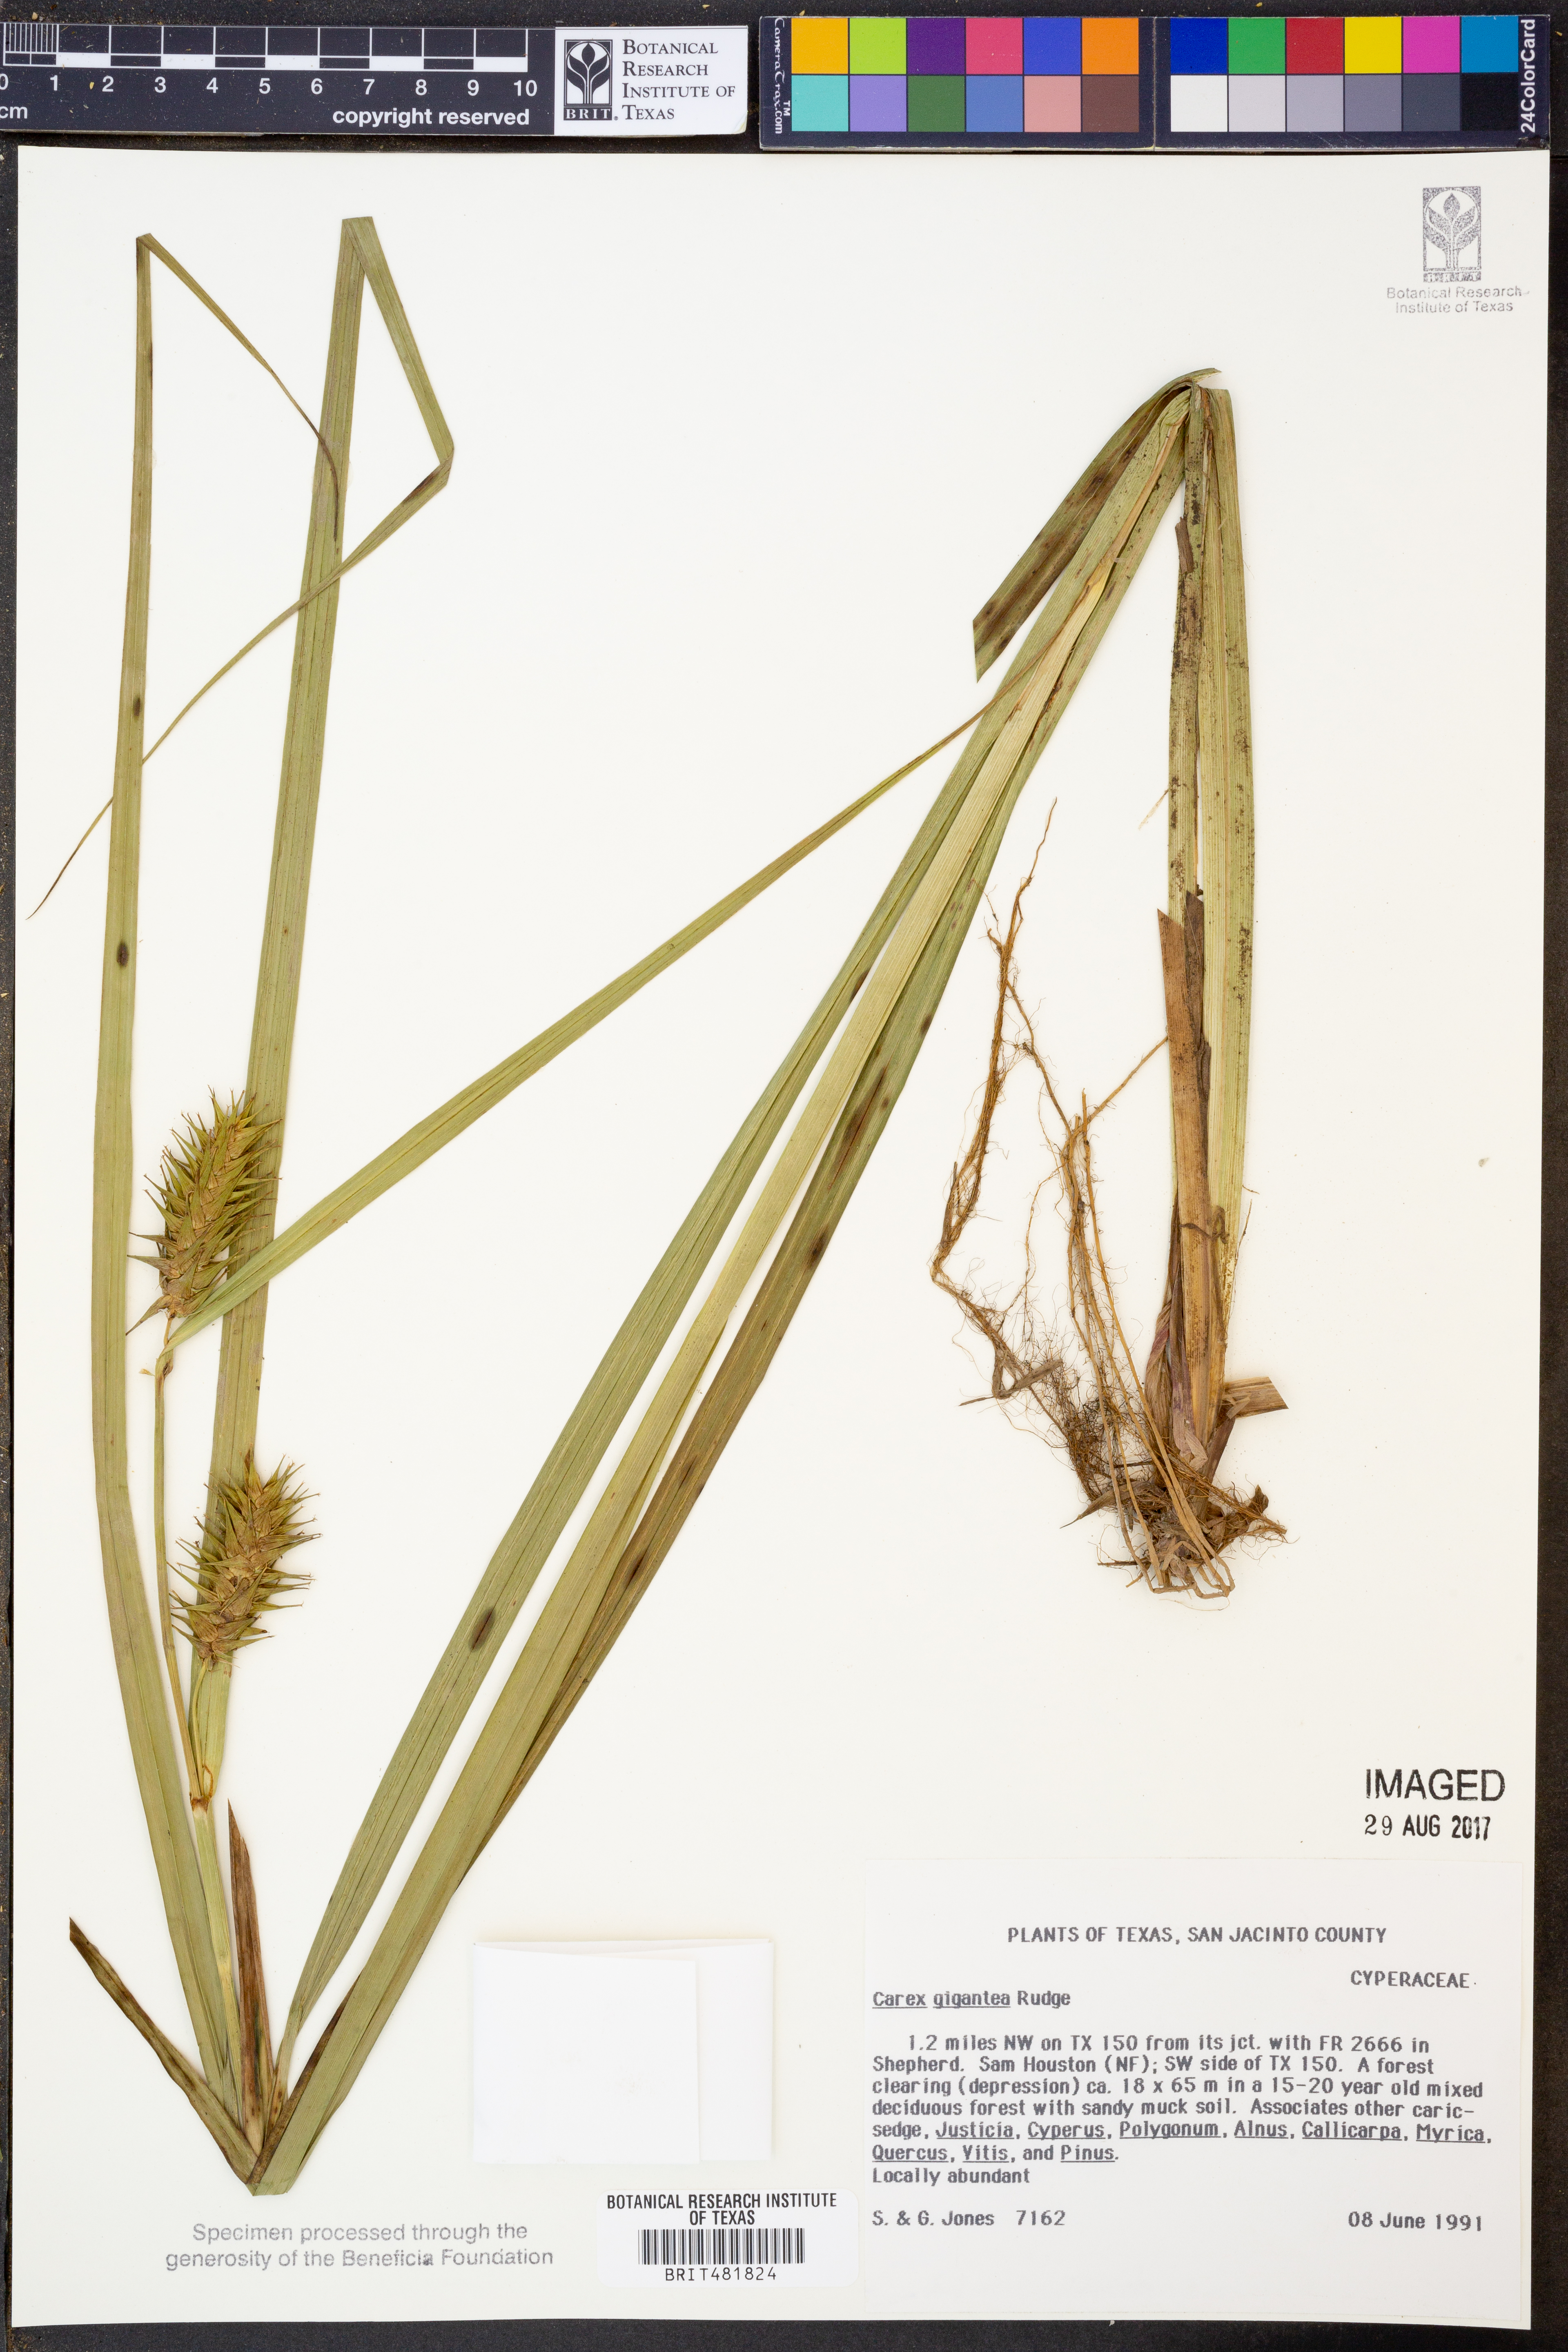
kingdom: Plantae
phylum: Tracheophyta
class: Liliopsida
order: Poales
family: Cyperaceae
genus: Carex
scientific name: Carex gigantea
